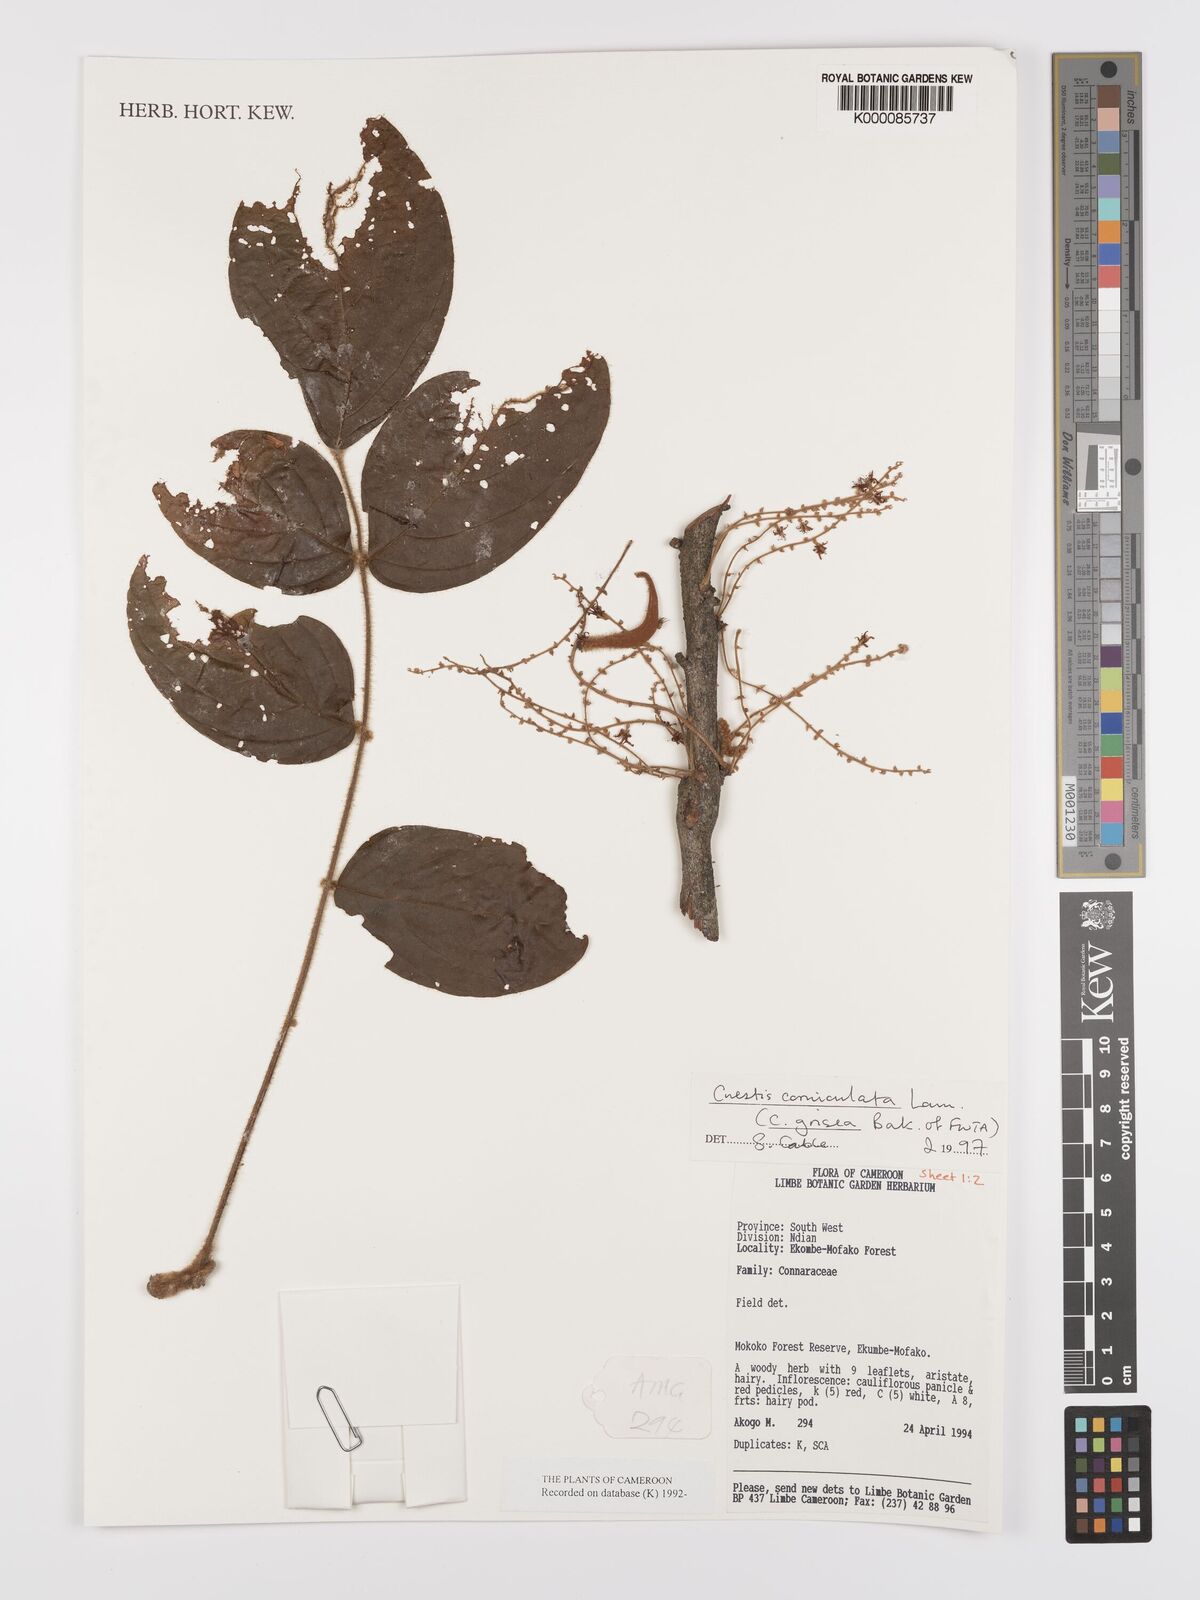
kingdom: Plantae
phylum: Tracheophyta
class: Magnoliopsida
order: Oxalidales
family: Connaraceae
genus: Cnestis
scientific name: Cnestis corniculata
